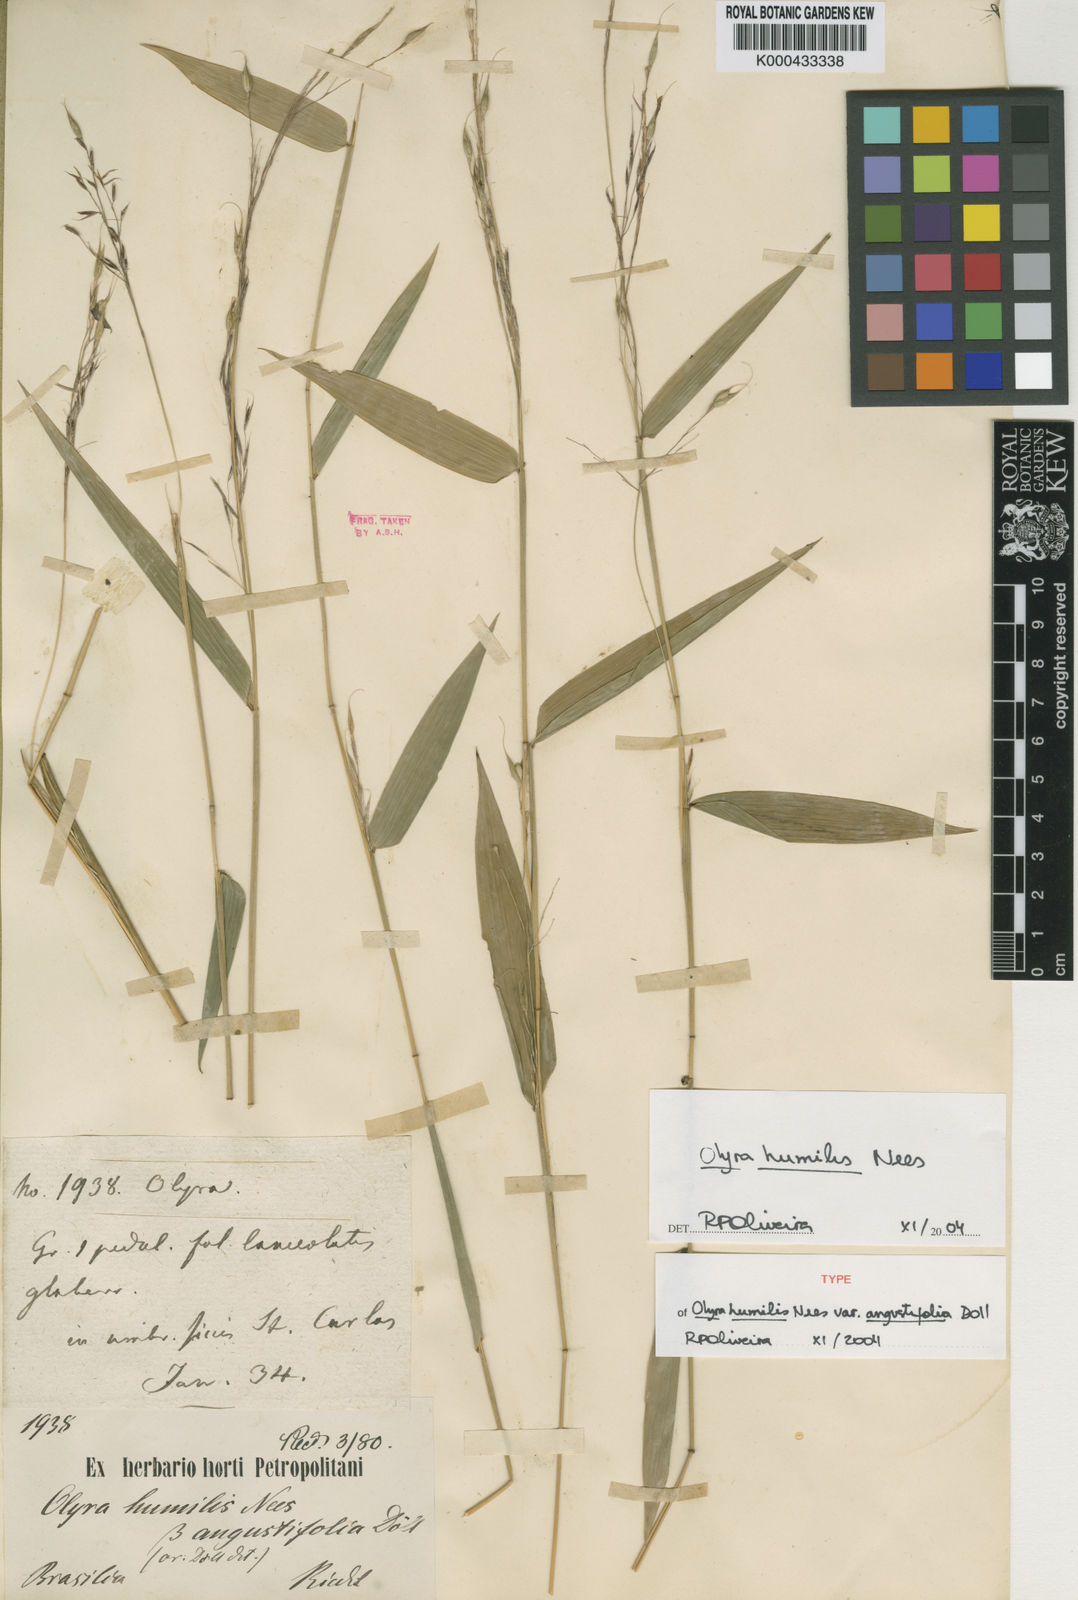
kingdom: Plantae
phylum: Tracheophyta
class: Liliopsida
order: Poales
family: Poaceae
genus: Olyra
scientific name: Olyra humilis
